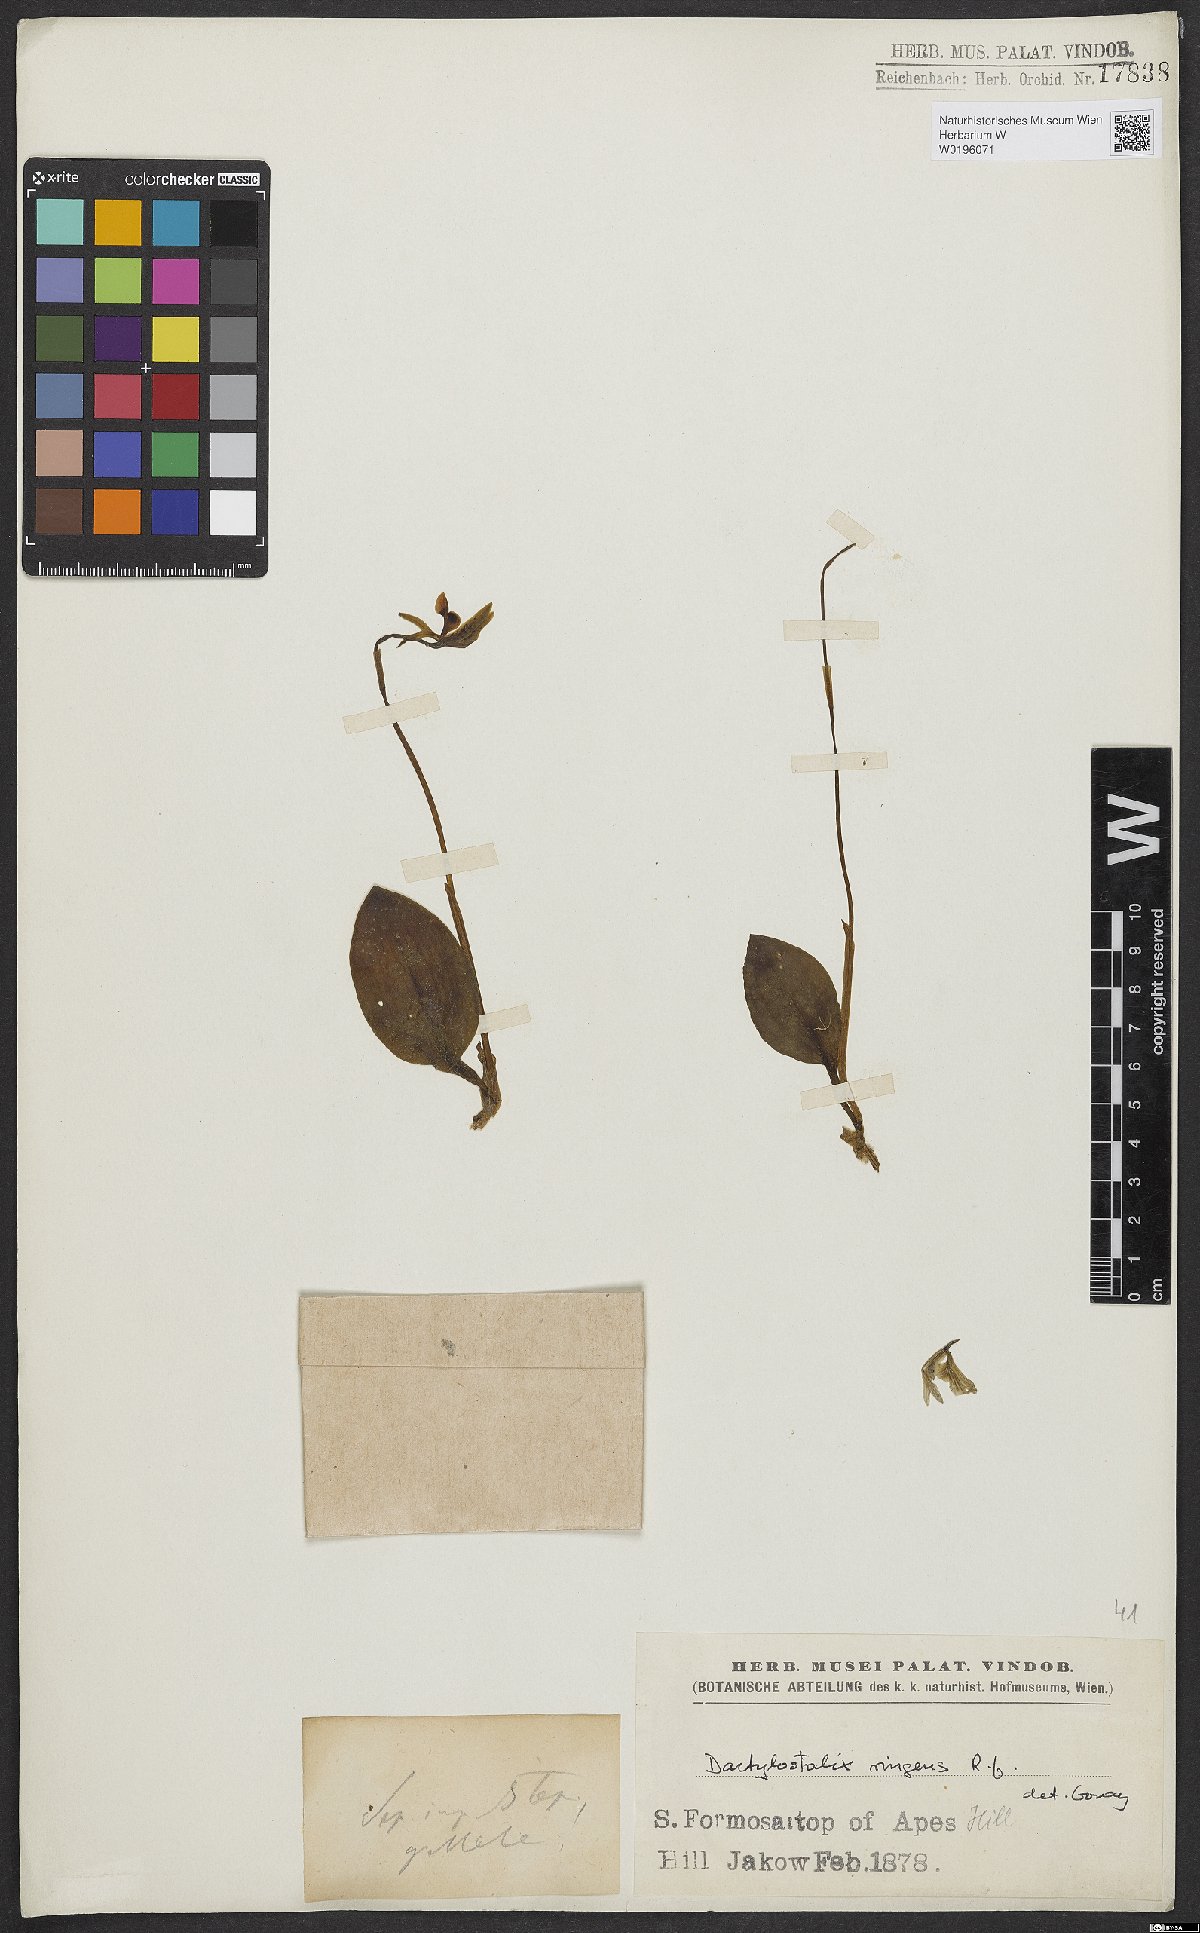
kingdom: Plantae
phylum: Tracheophyta
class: Liliopsida
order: Asparagales
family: Orchidaceae
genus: Dactylostalix
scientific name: Dactylostalix ringens
